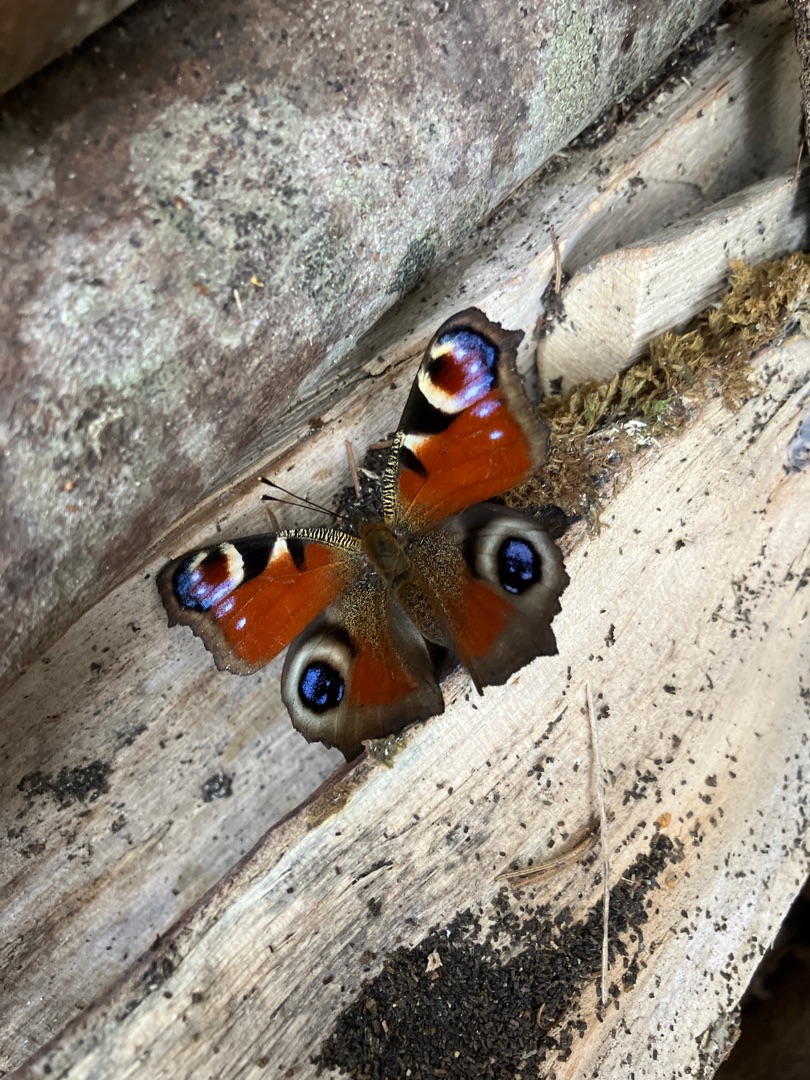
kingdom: Animalia
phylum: Arthropoda
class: Insecta
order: Lepidoptera
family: Nymphalidae
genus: Aglais
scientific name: Aglais io
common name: Dagpåfugleøje
